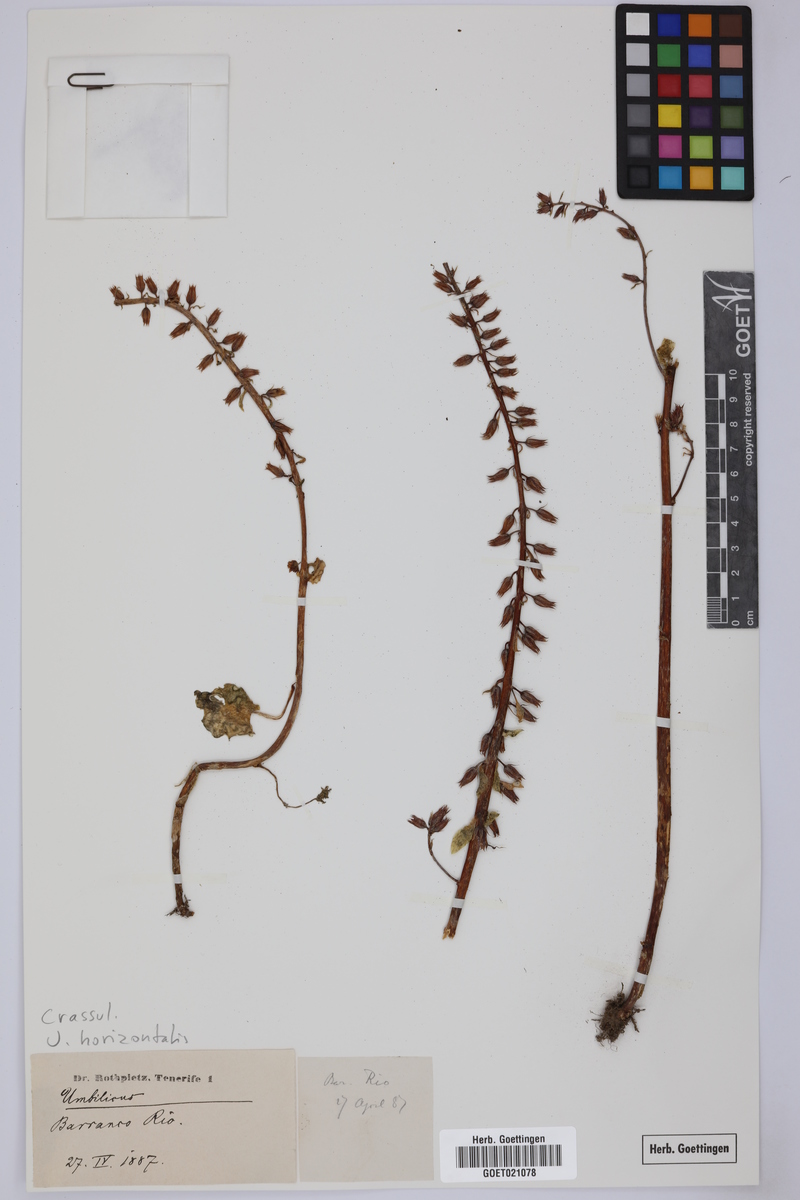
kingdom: Plantae
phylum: Tracheophyta
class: Magnoliopsida
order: Saxifragales
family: Crassulaceae
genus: Umbilicus
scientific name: Umbilicus horizontalis
